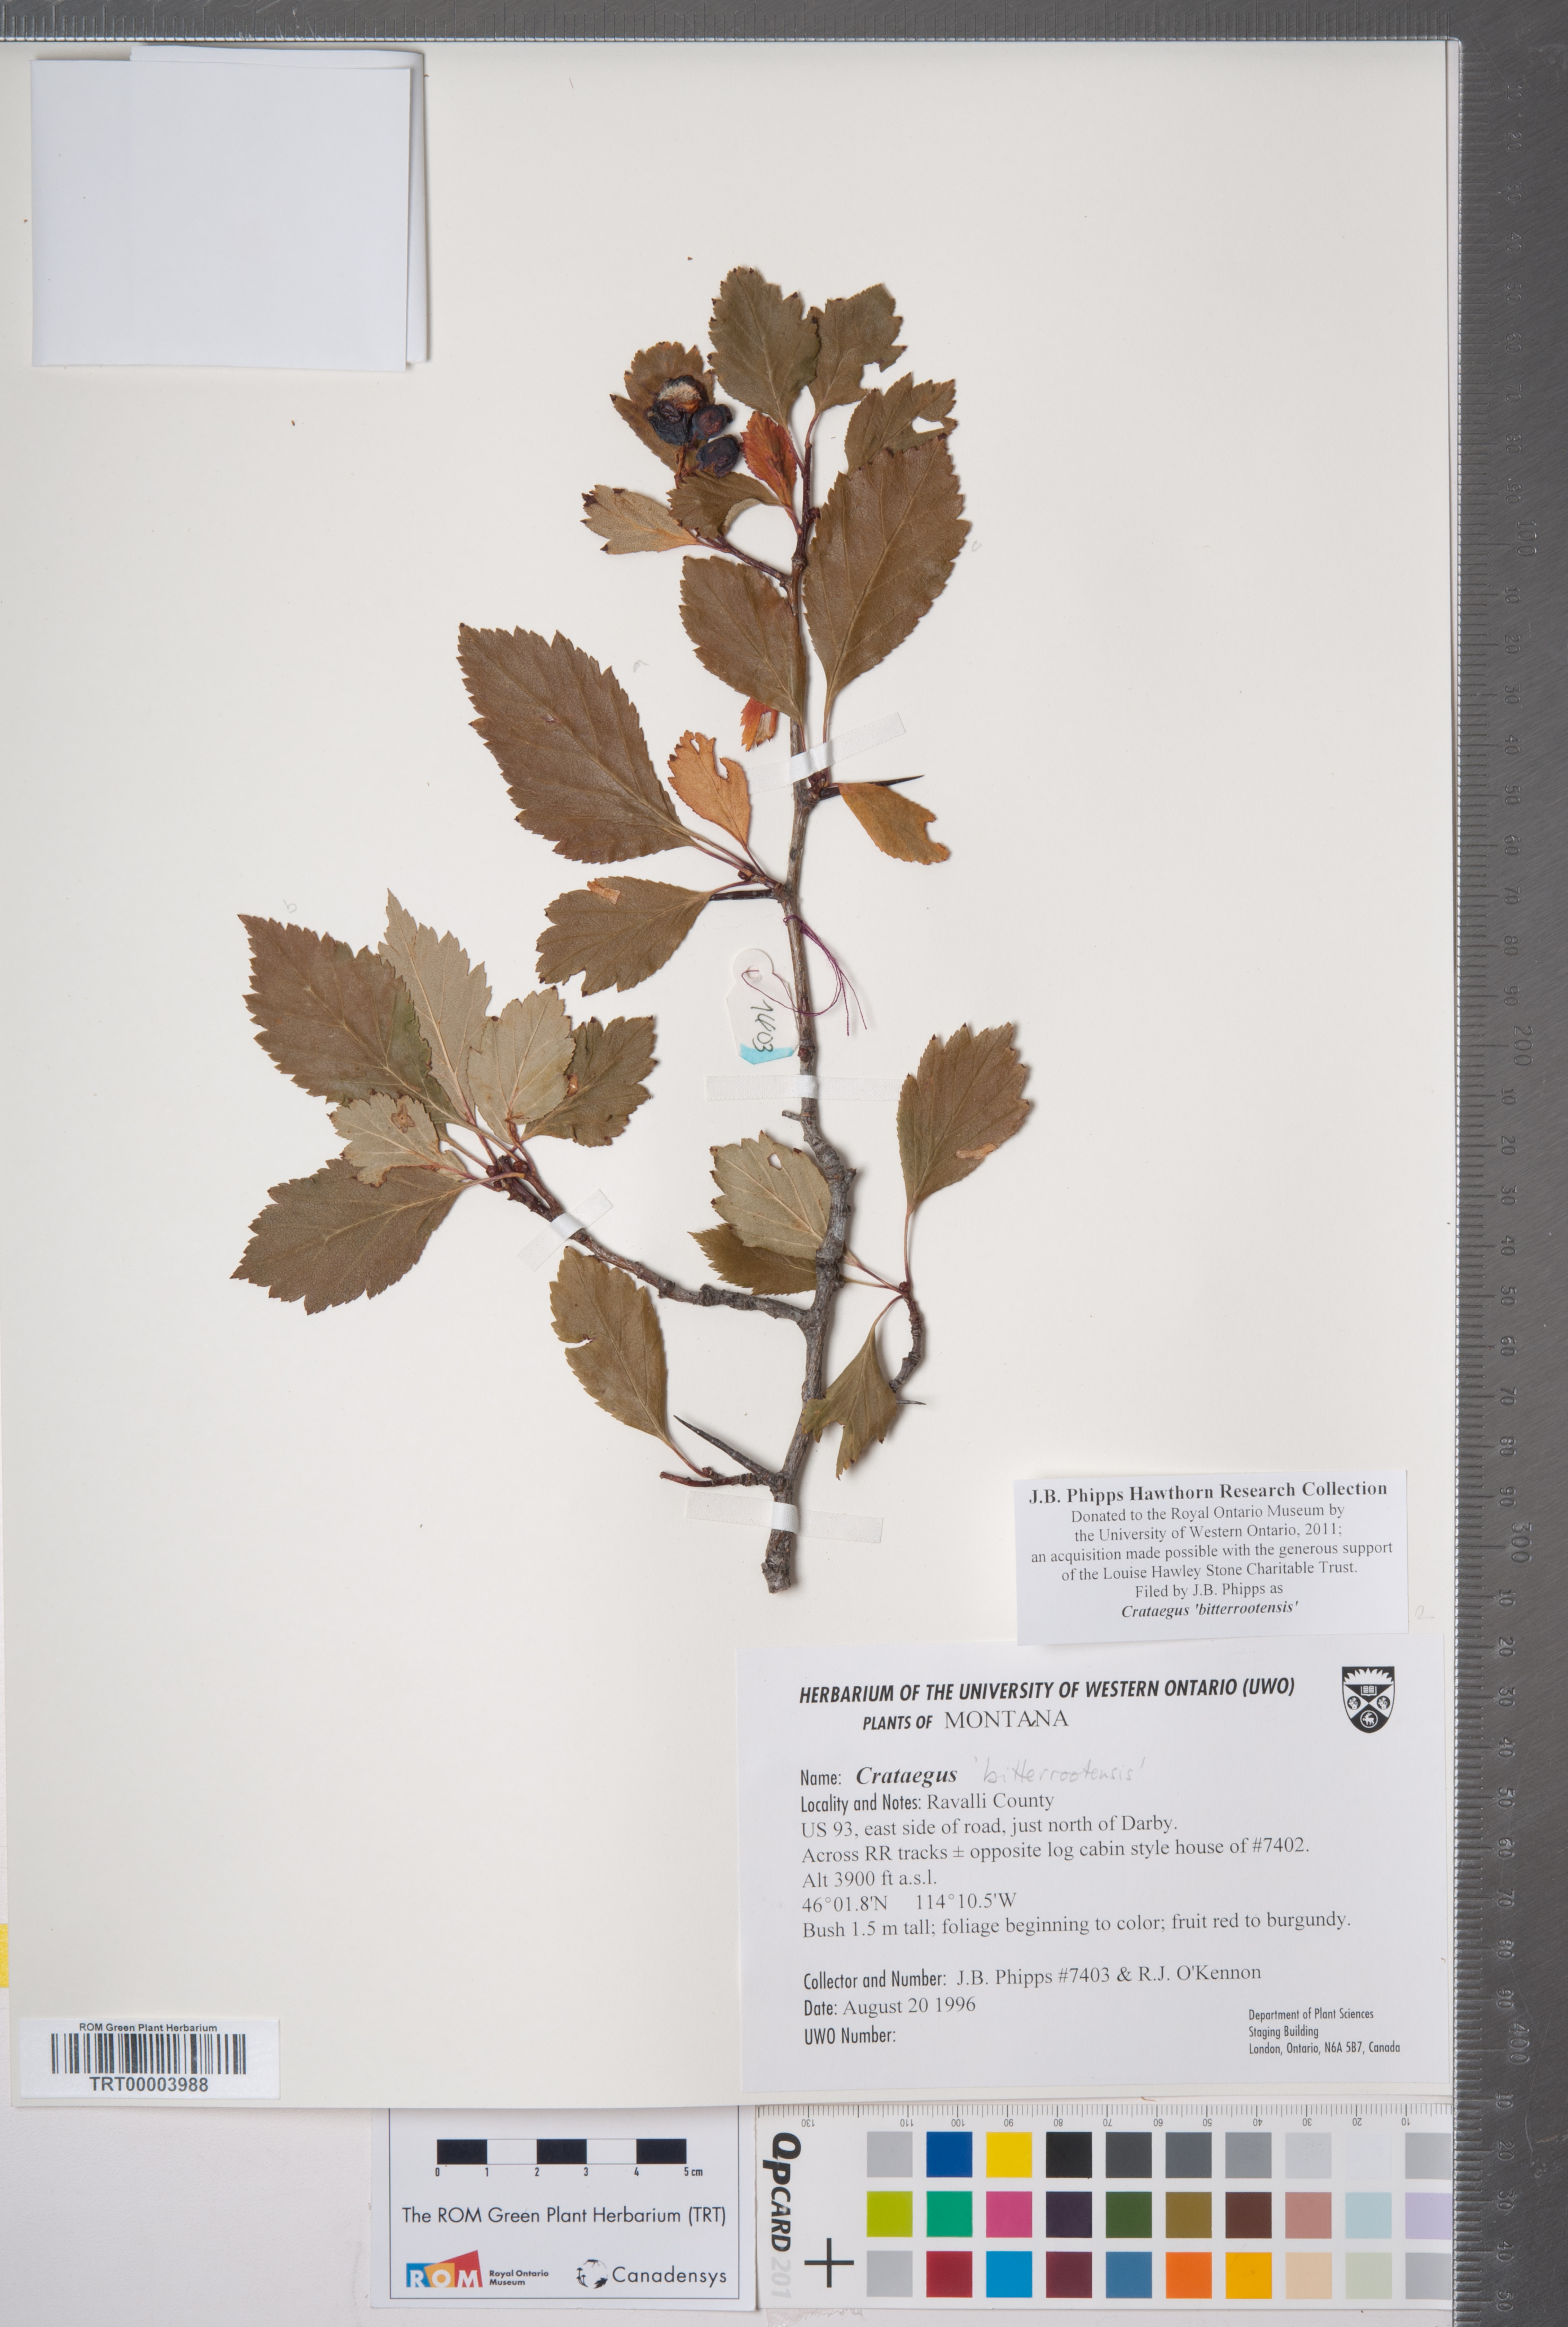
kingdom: Plantae
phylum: Tracheophyta
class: Magnoliopsida
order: Rosales
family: Rosaceae
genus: Crataegus
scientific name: Crataegus douglasii
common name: Black hawthorn
